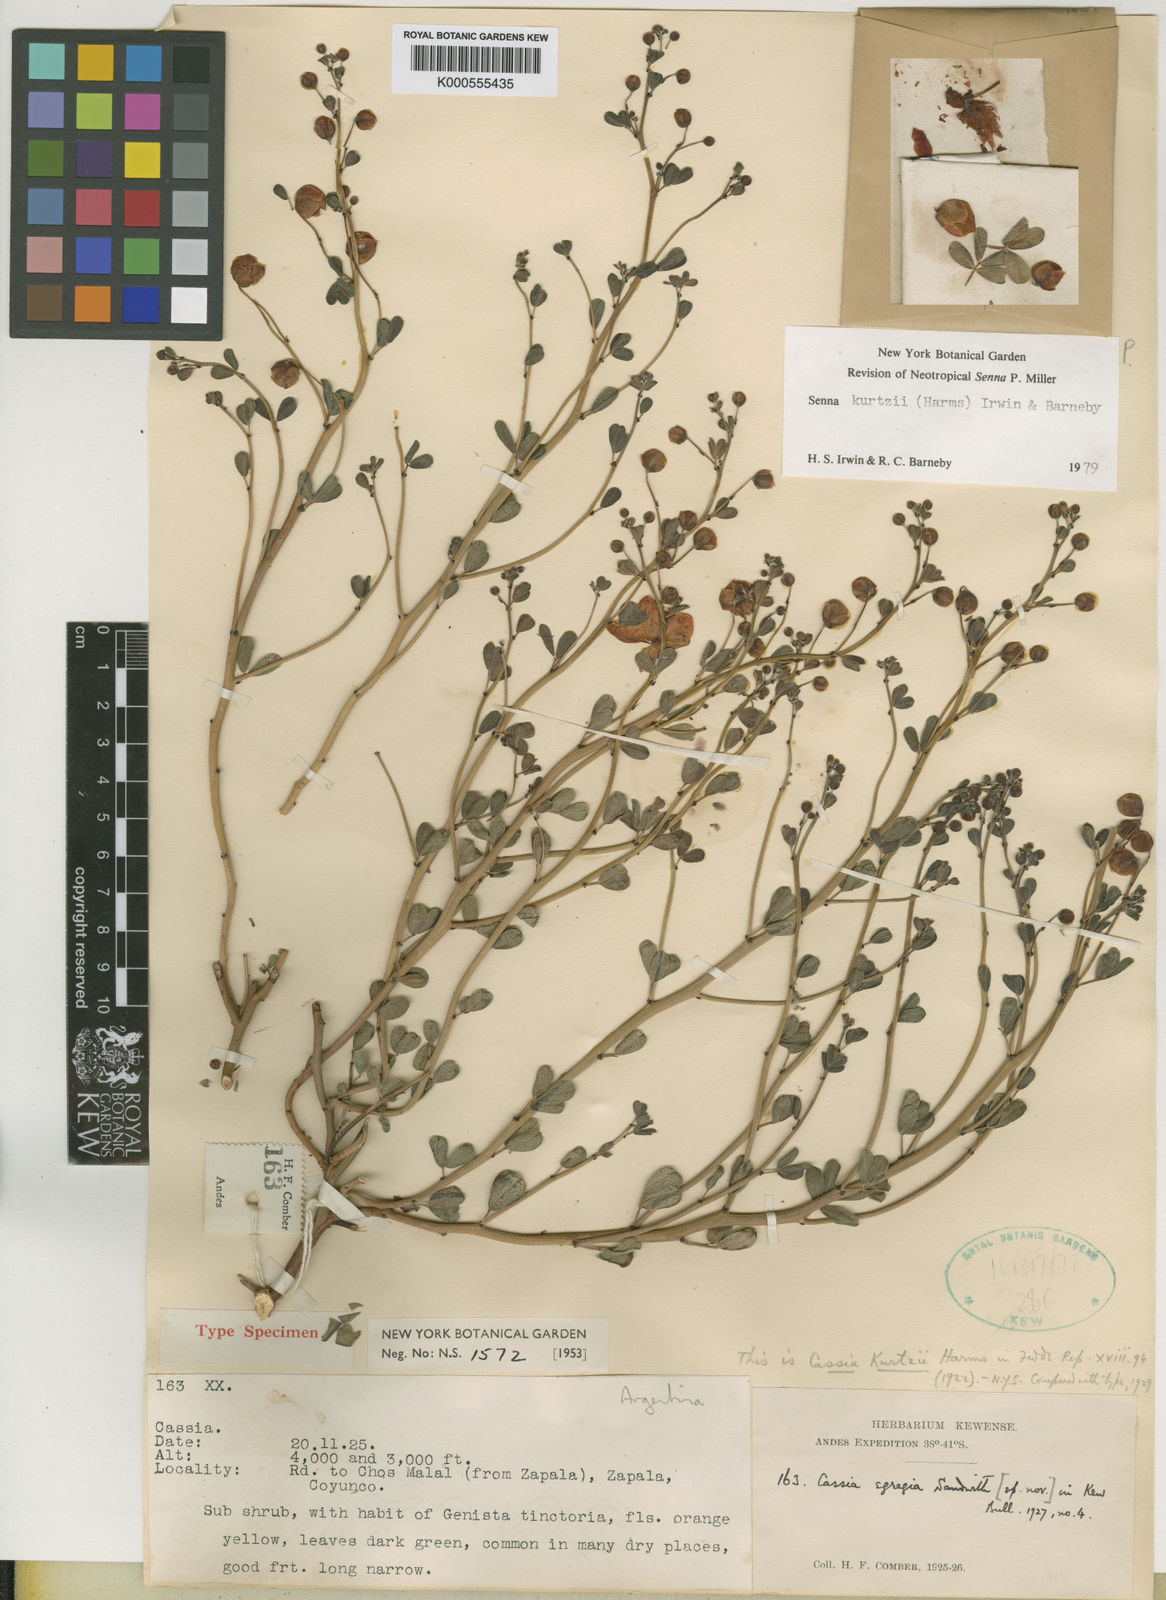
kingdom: Plantae
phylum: Tracheophyta
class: Magnoliopsida
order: Fabales
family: Fabaceae
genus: Senna
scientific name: Senna kurtzii
